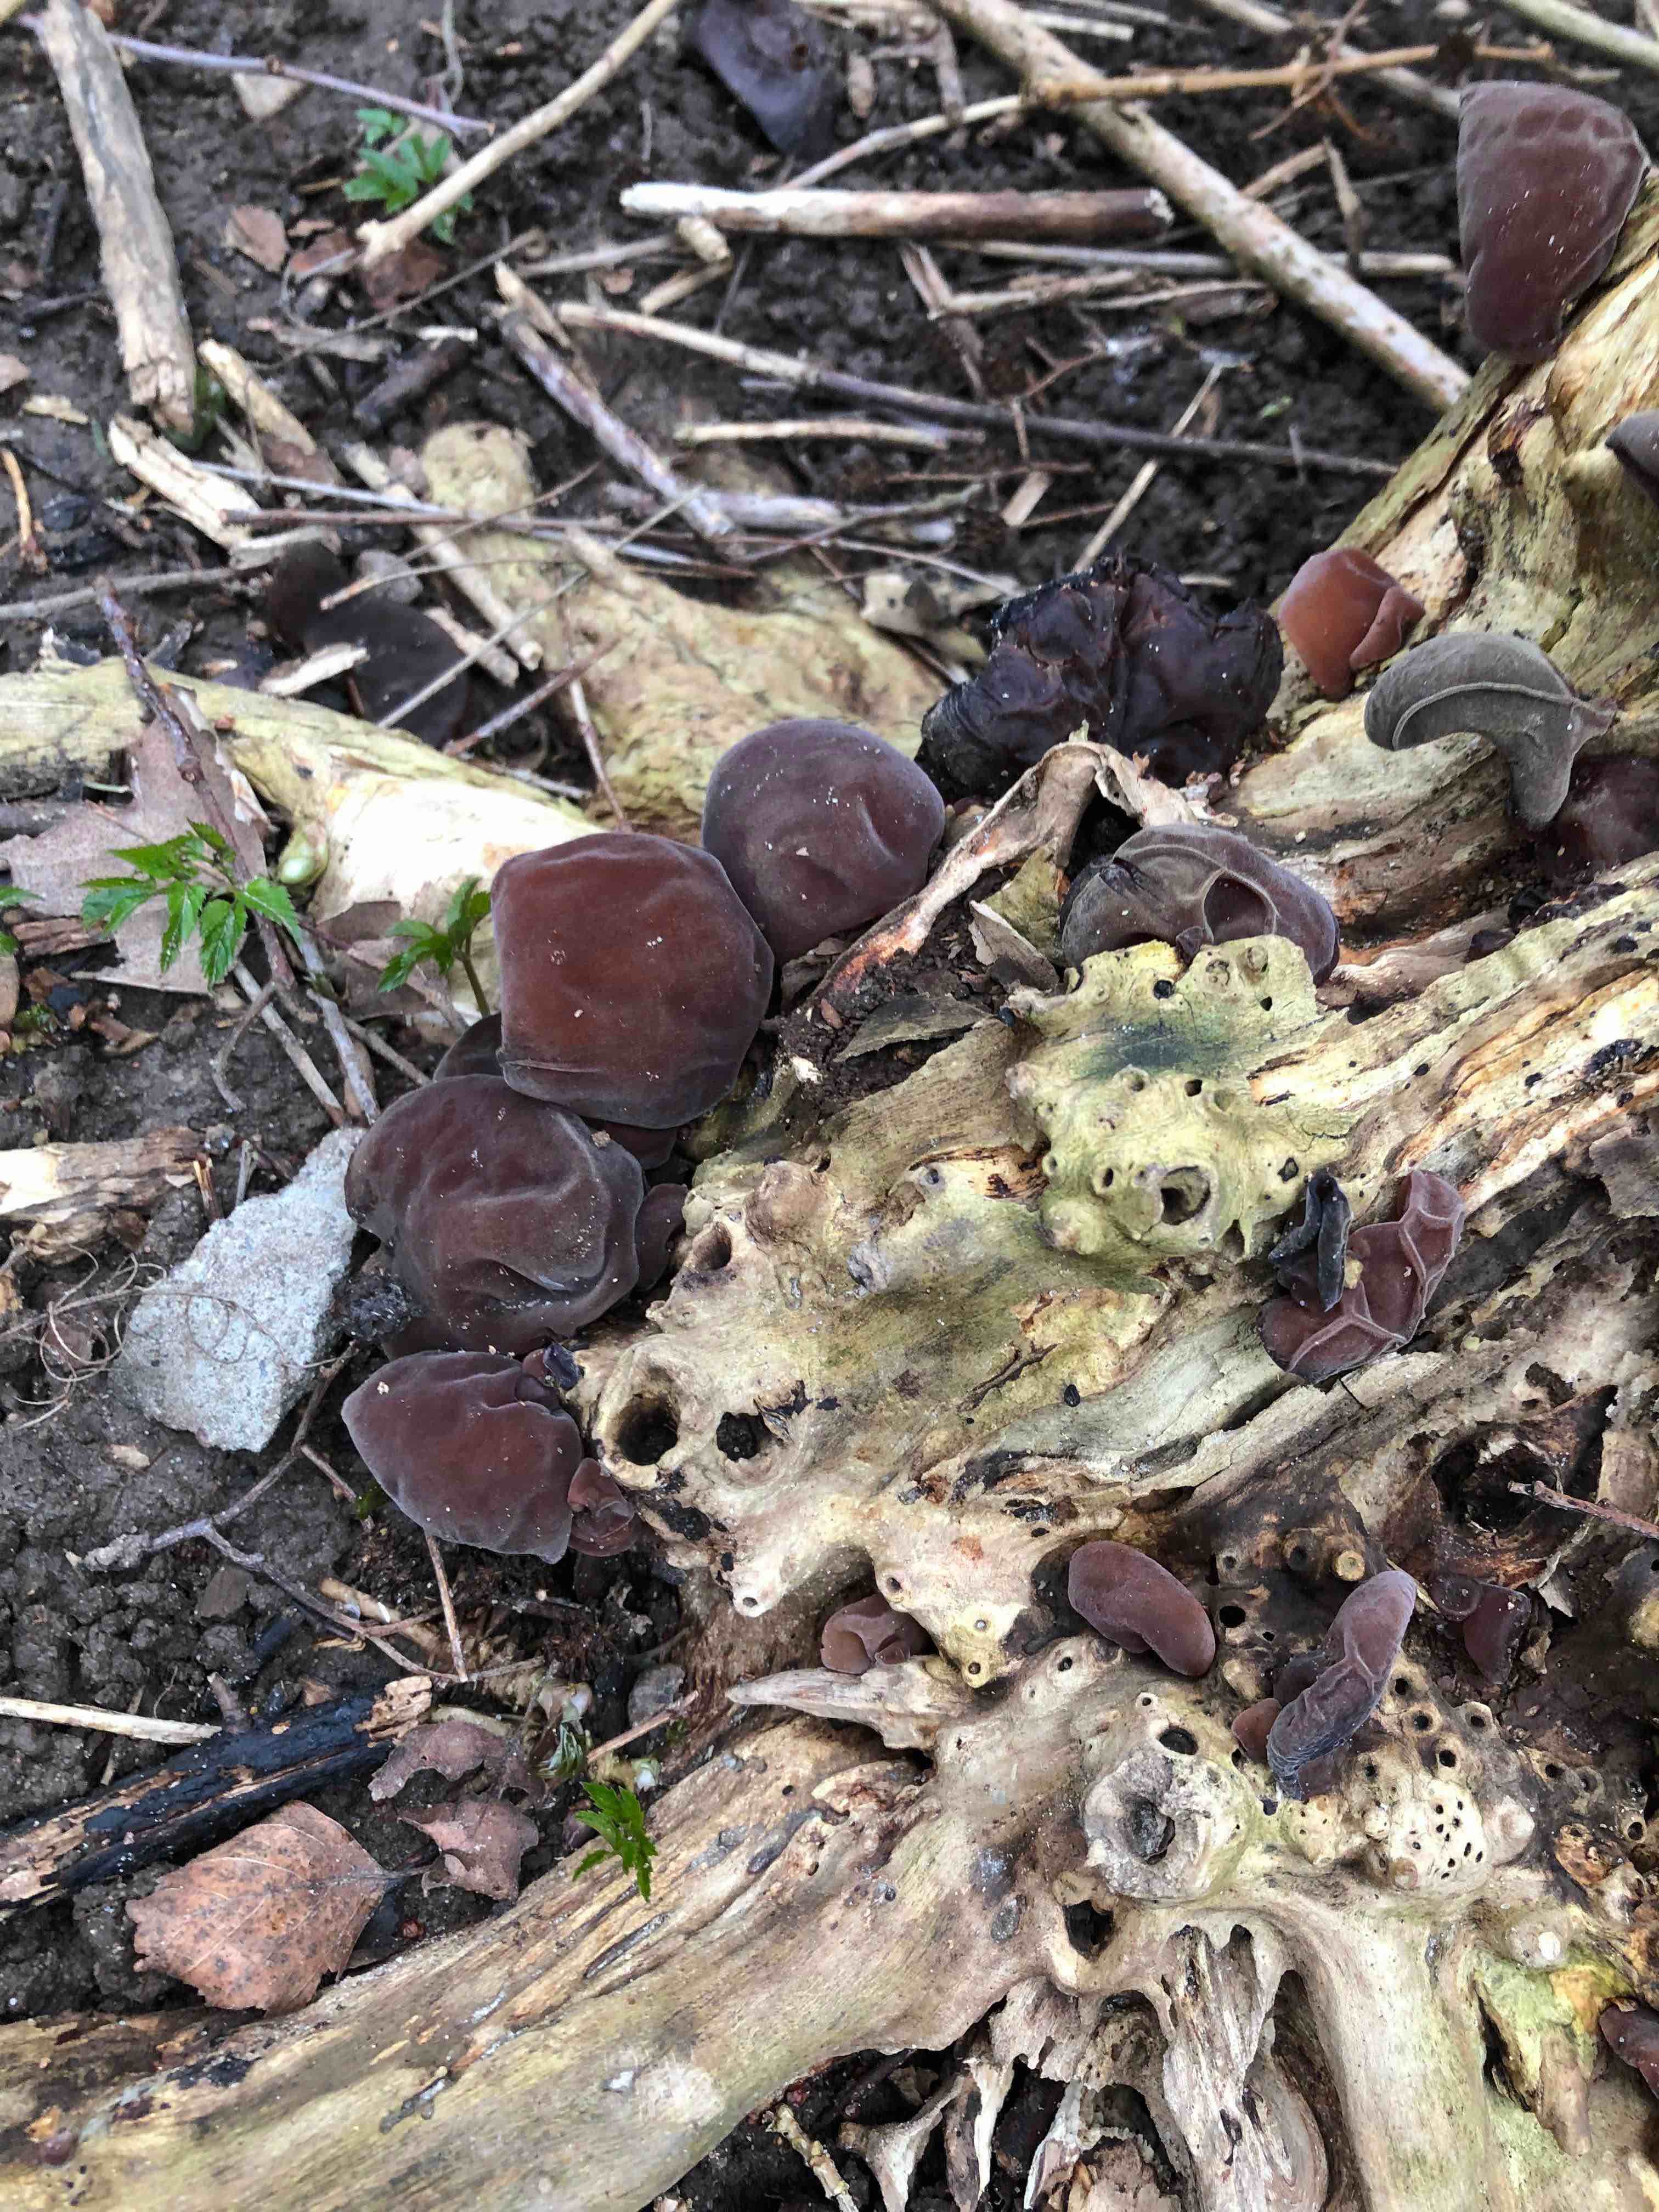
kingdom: Fungi
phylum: Basidiomycota
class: Agaricomycetes
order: Auriculariales
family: Auriculariaceae
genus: Auricularia
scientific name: Auricularia auricula-judae
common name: almindelig judasøre
